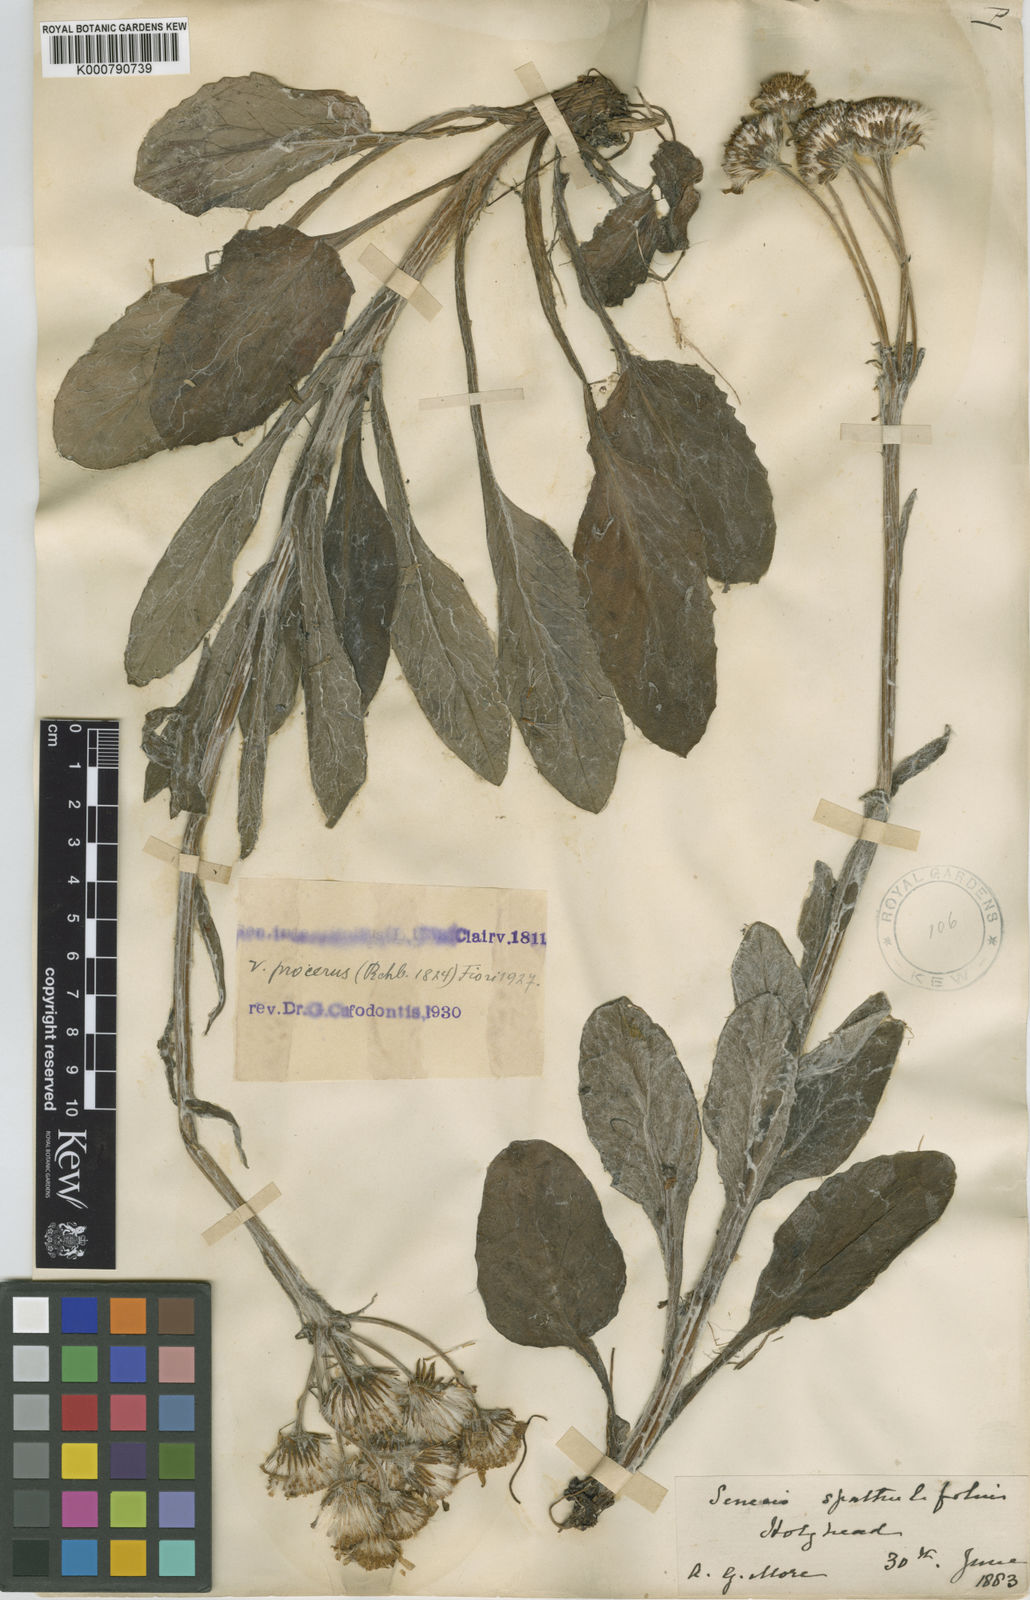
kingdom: Plantae
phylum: Tracheophyta
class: Magnoliopsida
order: Asterales
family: Asteraceae
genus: Tephroseris
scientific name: Tephroseris integrifolia
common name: Field fleawort
